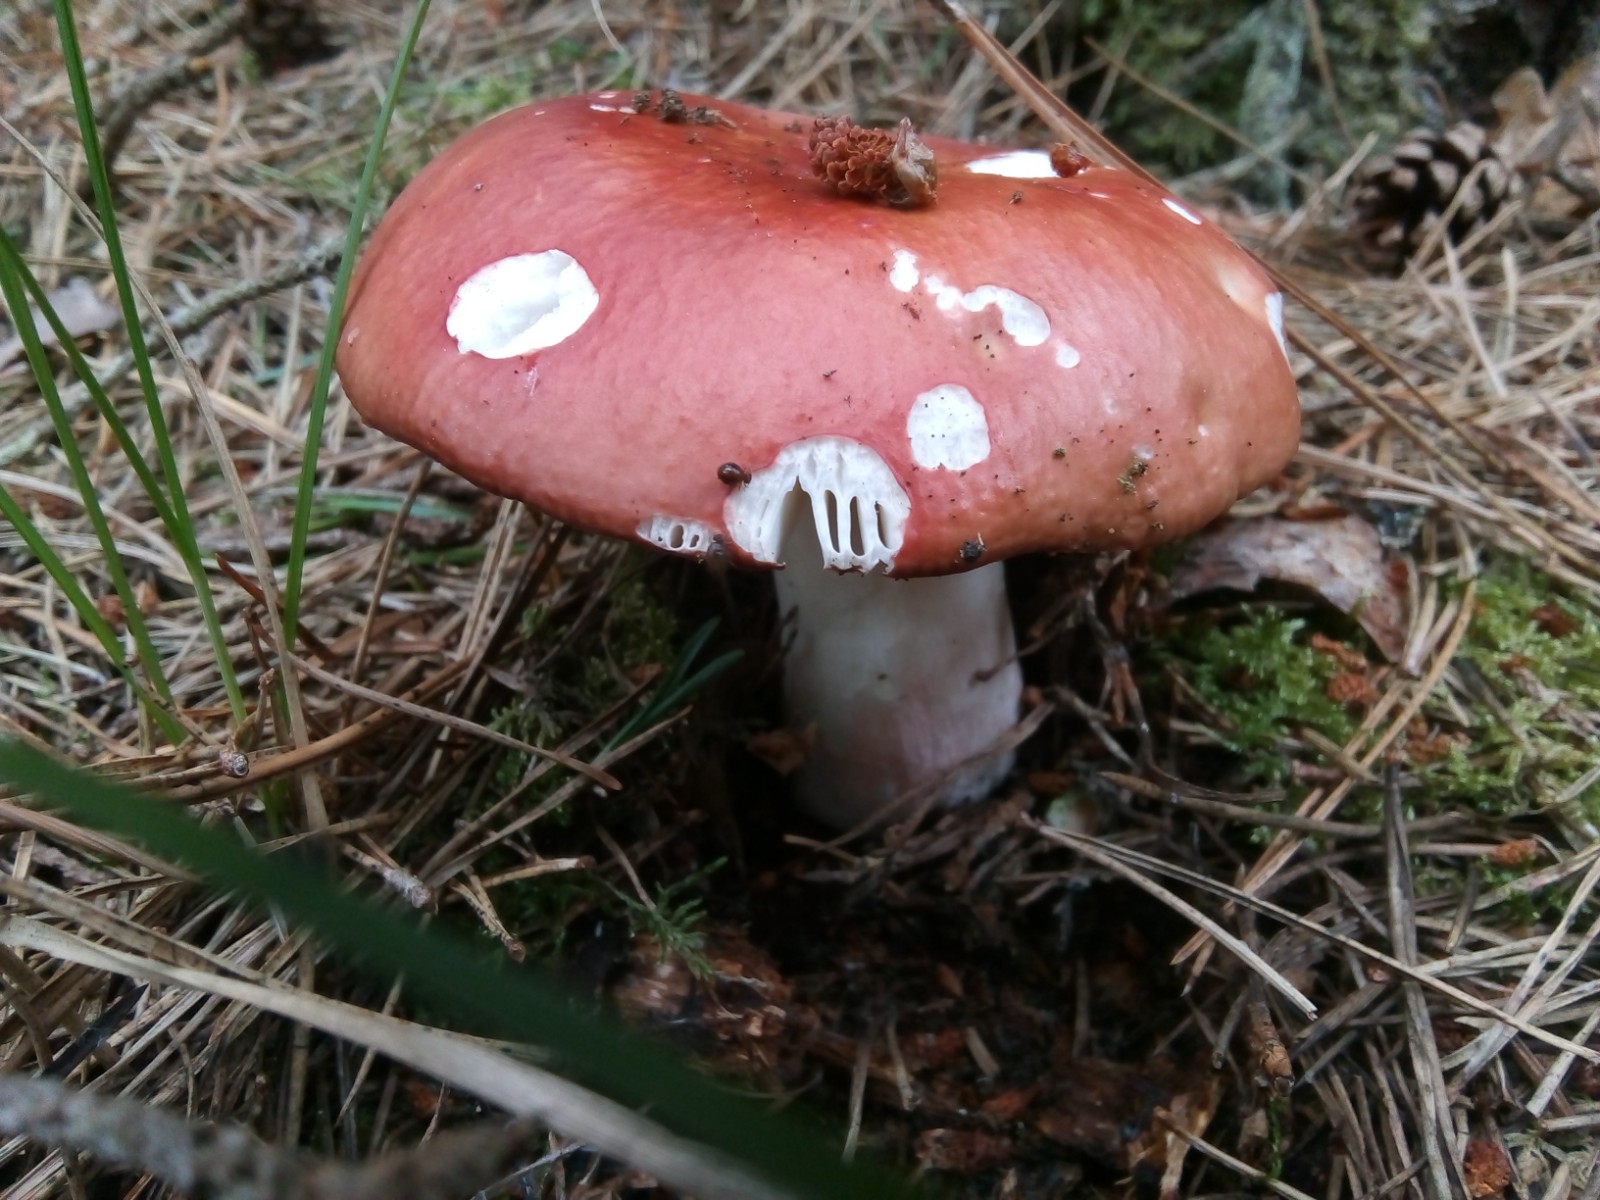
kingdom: Fungi
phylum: Basidiomycota
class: Agaricomycetes
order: Russulales
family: Russulaceae
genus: Russula
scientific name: Russula paludosa
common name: prægtig skørhat
